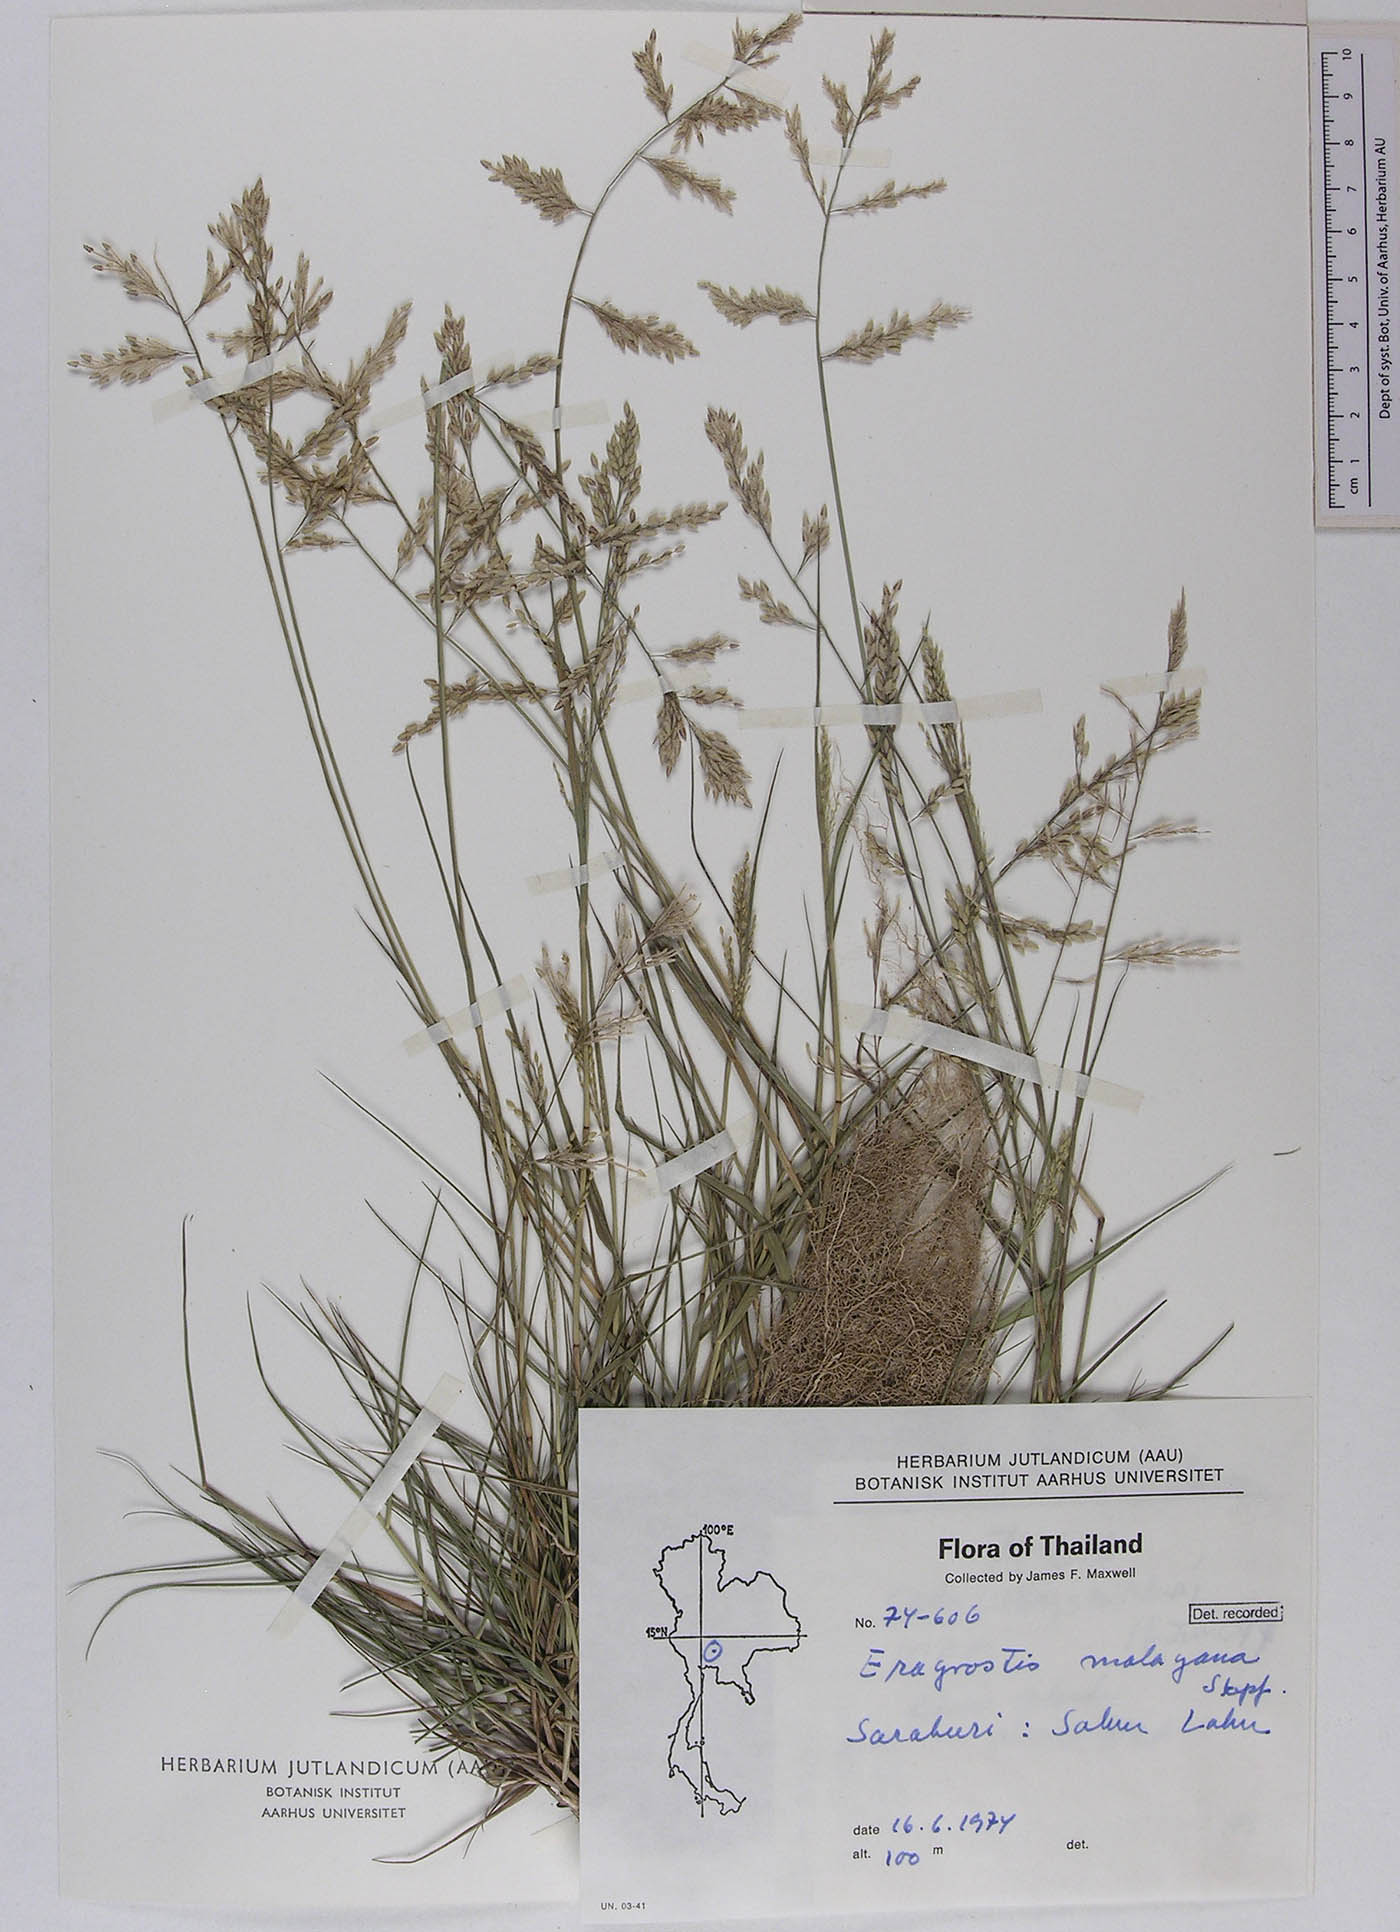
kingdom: Plantae
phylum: Tracheophyta
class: Liliopsida
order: Poales
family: Poaceae
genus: Eragrostis
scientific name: Eragrostis montana
